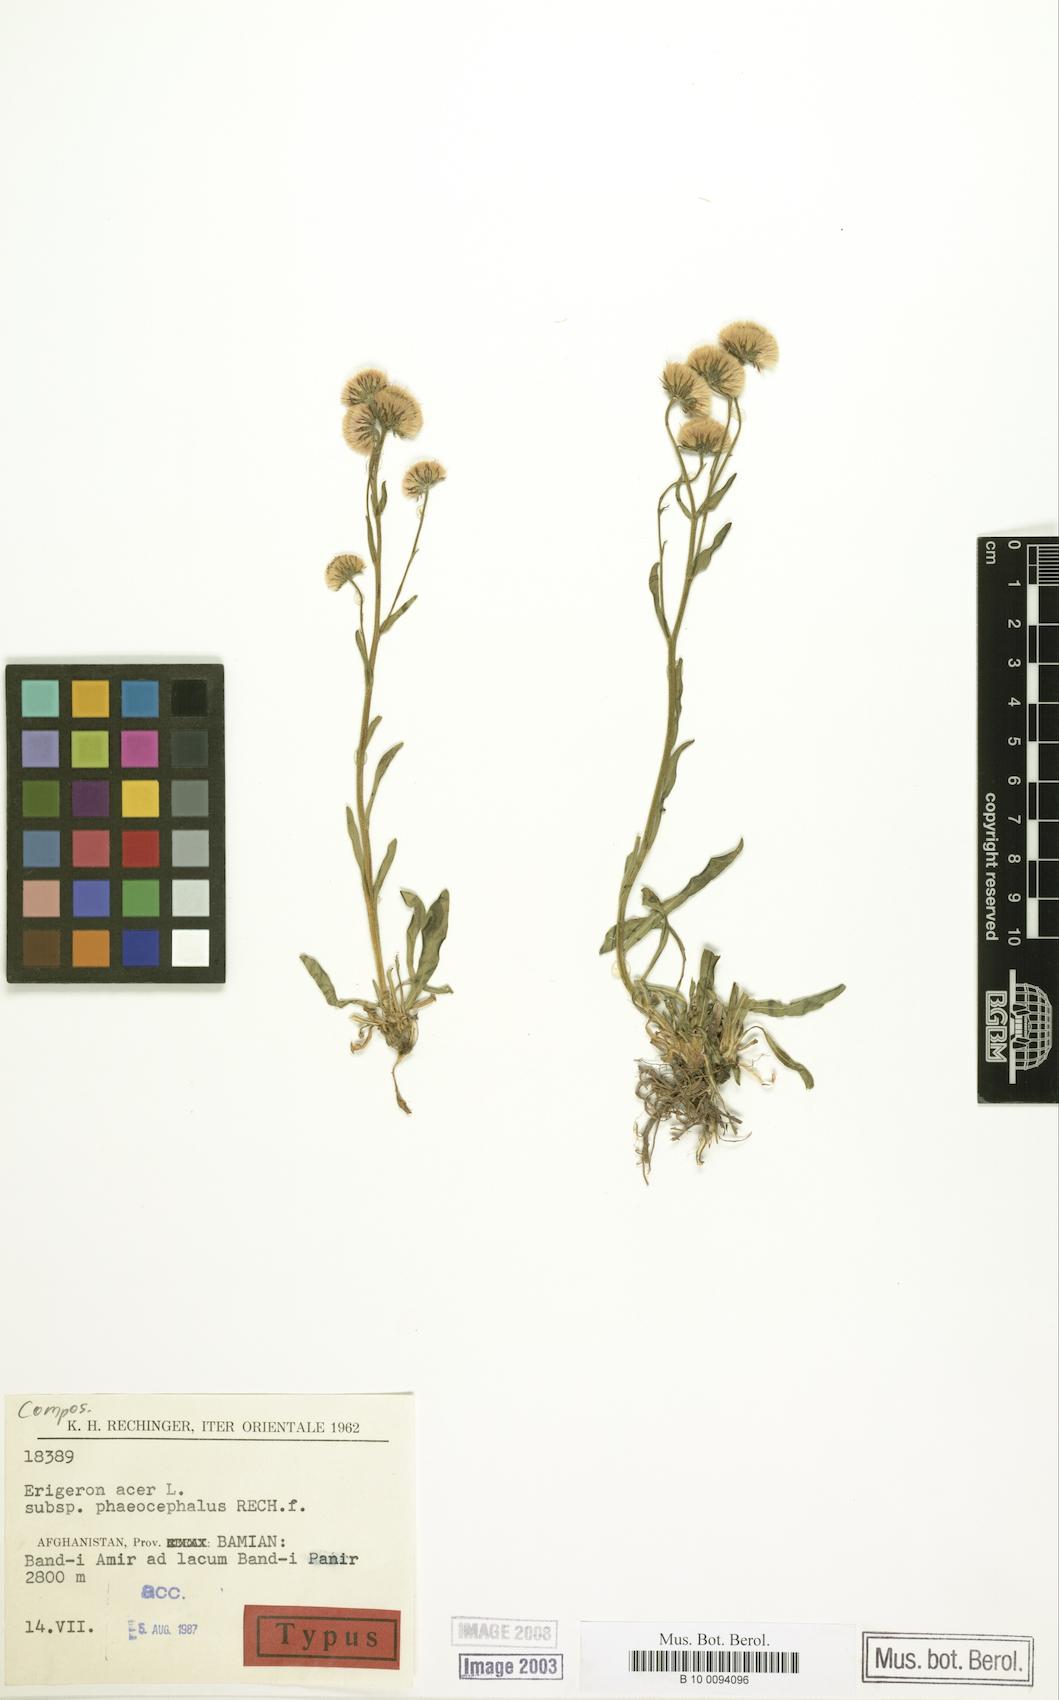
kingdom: Plantae
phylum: Tracheophyta
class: Magnoliopsida
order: Asterales
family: Asteraceae
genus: Erigeron
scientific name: Erigeron acris
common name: Blue fleabane
